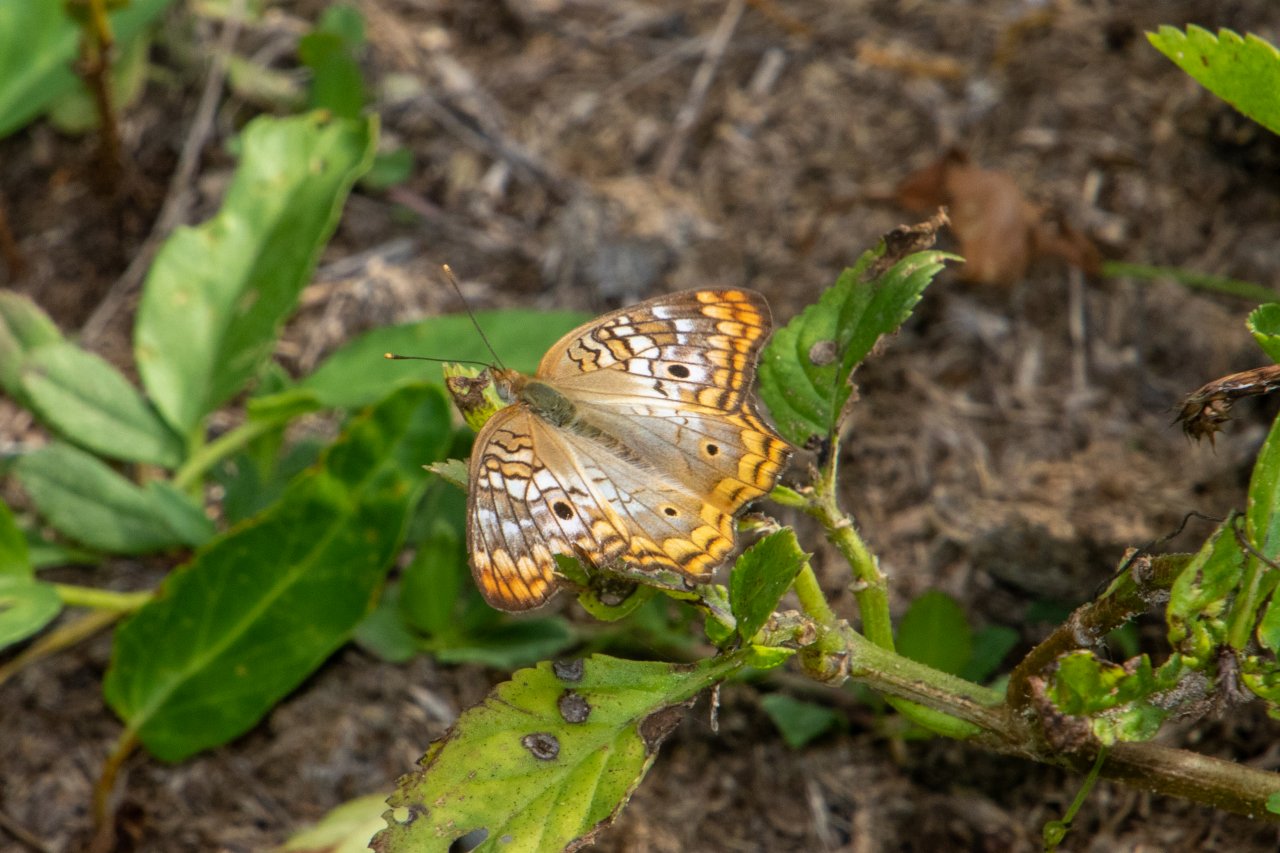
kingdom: Animalia
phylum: Arthropoda
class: Insecta
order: Lepidoptera
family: Nymphalidae
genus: Anartia
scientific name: Anartia jatrophae
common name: White Peacock
